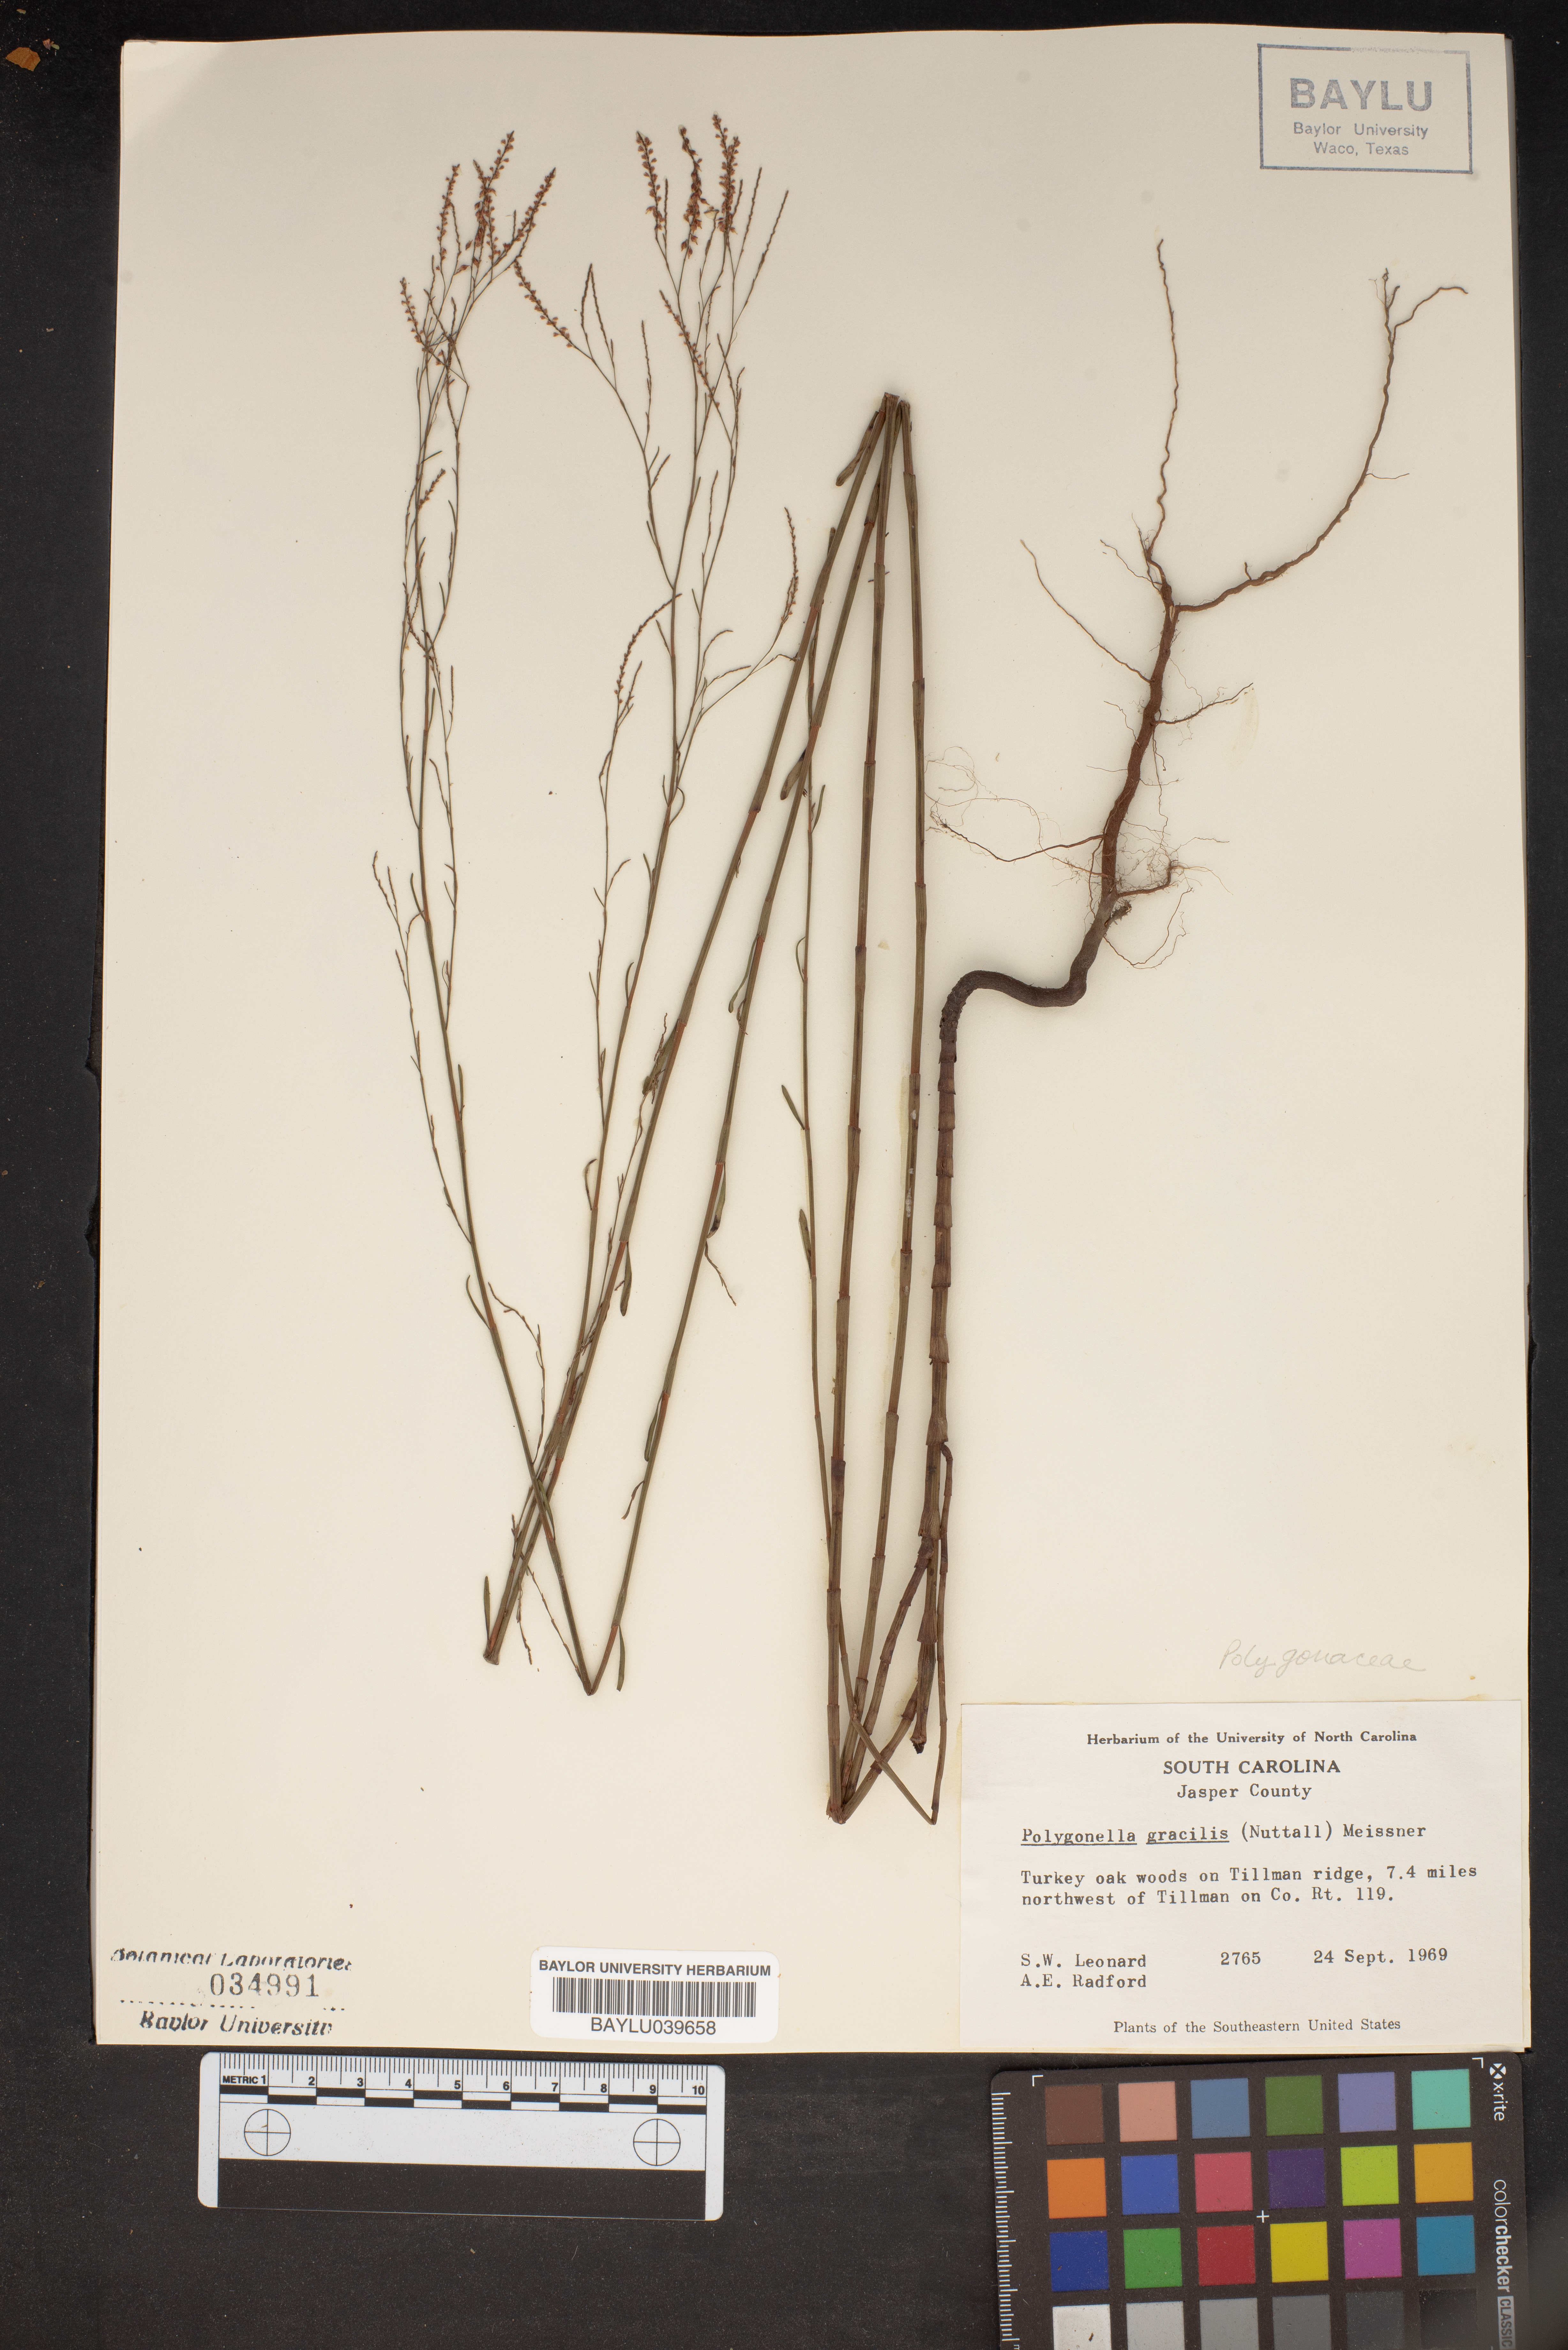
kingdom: Plantae
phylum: Tracheophyta
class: Magnoliopsida
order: Caryophyllales
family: Polygonaceae
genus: Polygonella
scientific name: Polygonella gracilis
